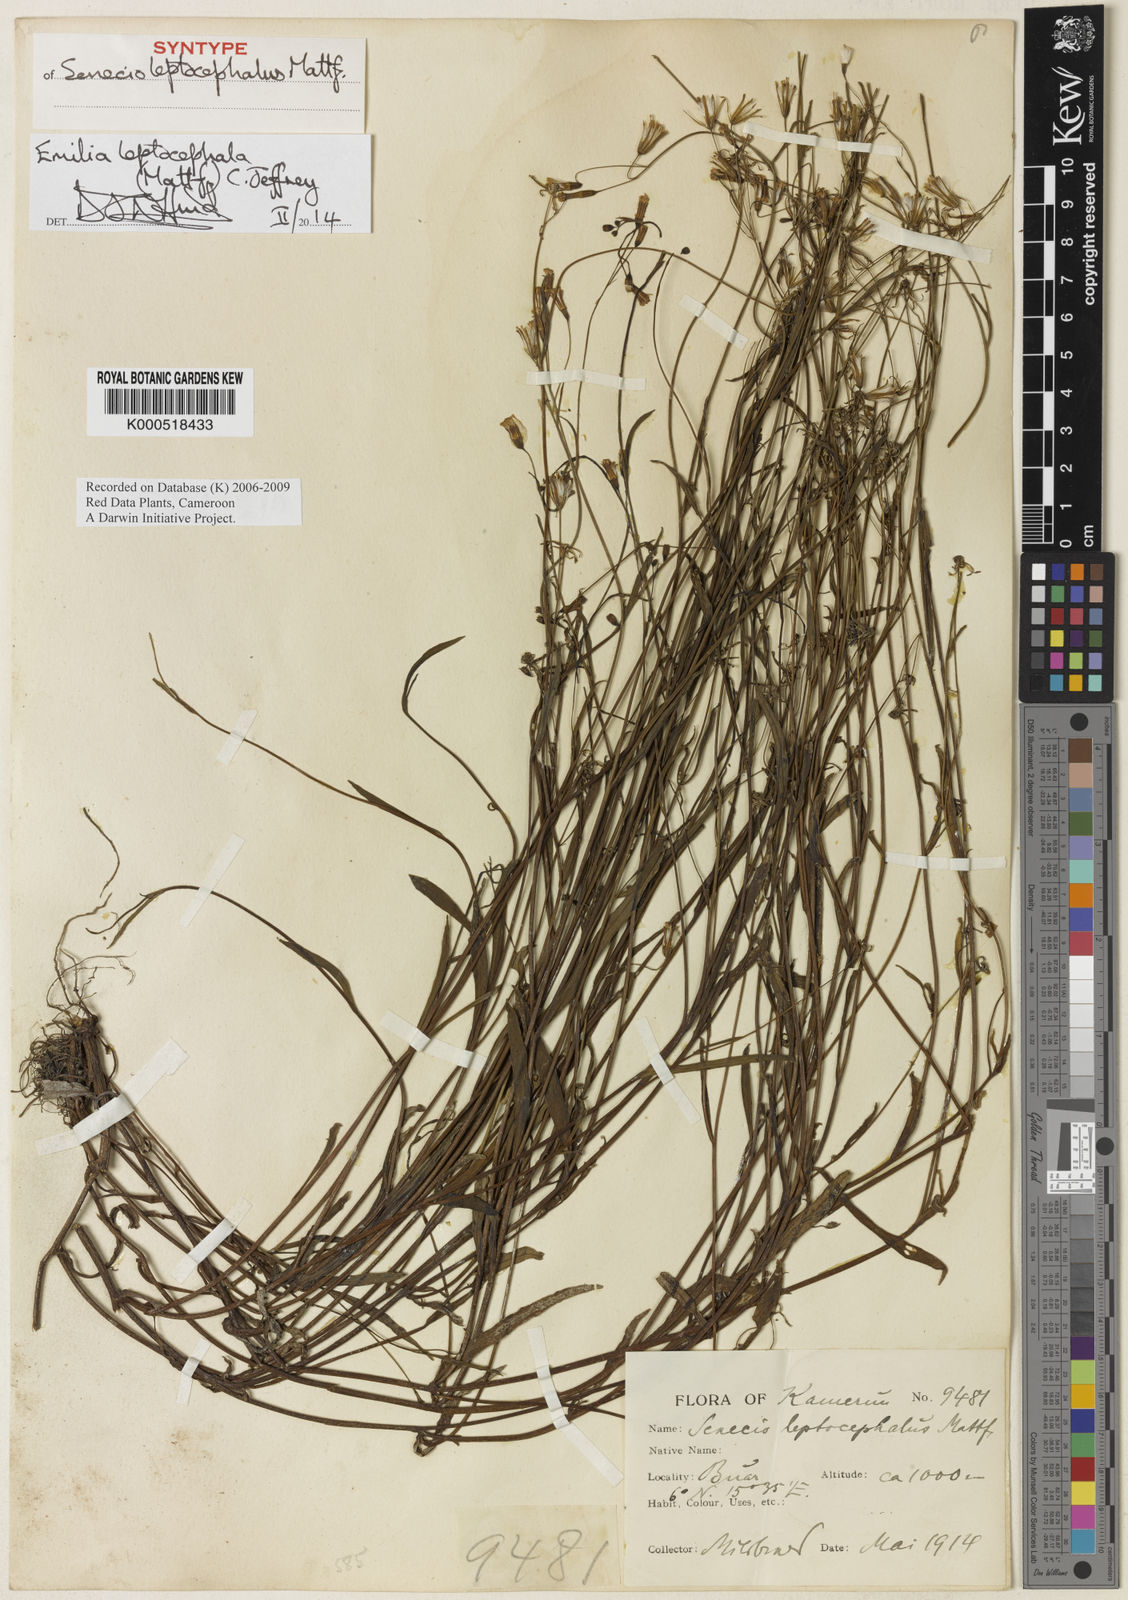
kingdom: Plantae
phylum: Tracheophyta
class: Magnoliopsida
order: Asterales
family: Asteraceae
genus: Emilia
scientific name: Emilia leptocephala
